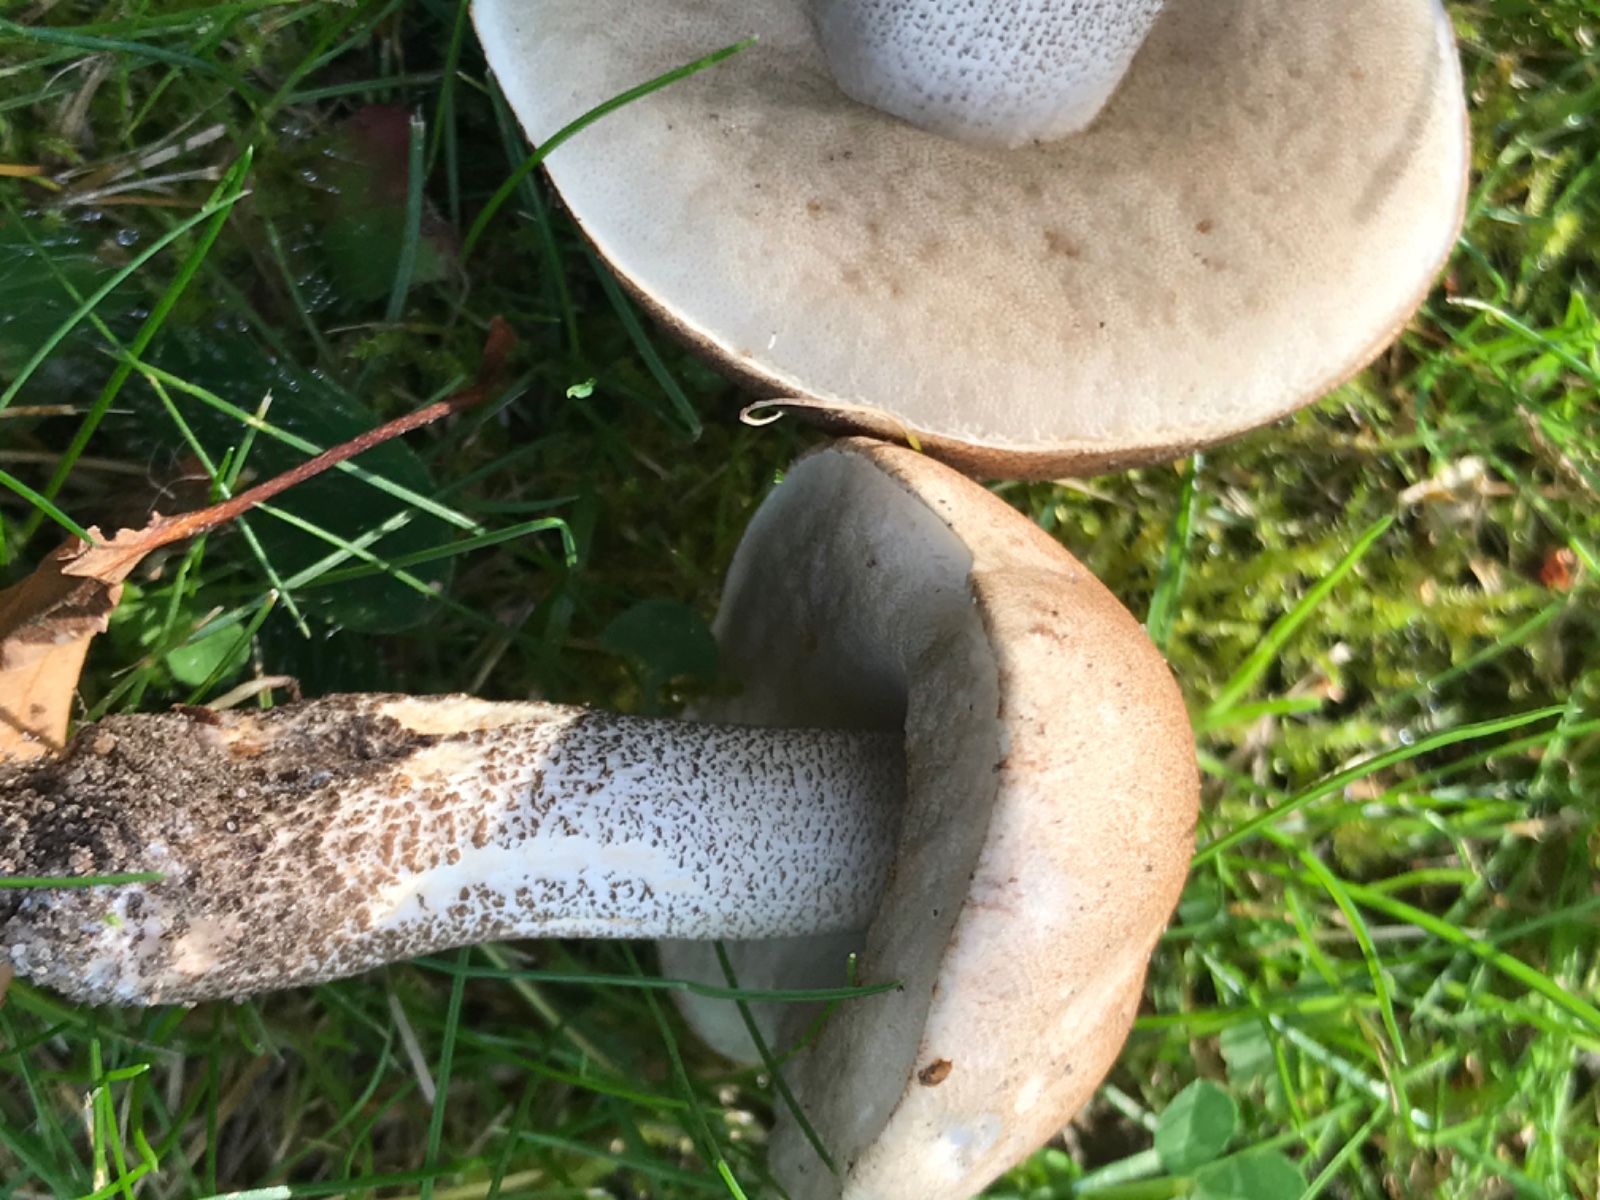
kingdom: Fungi
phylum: Basidiomycota
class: Agaricomycetes
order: Boletales
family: Boletaceae
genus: Leccinum
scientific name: Leccinum
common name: skælrørhat
